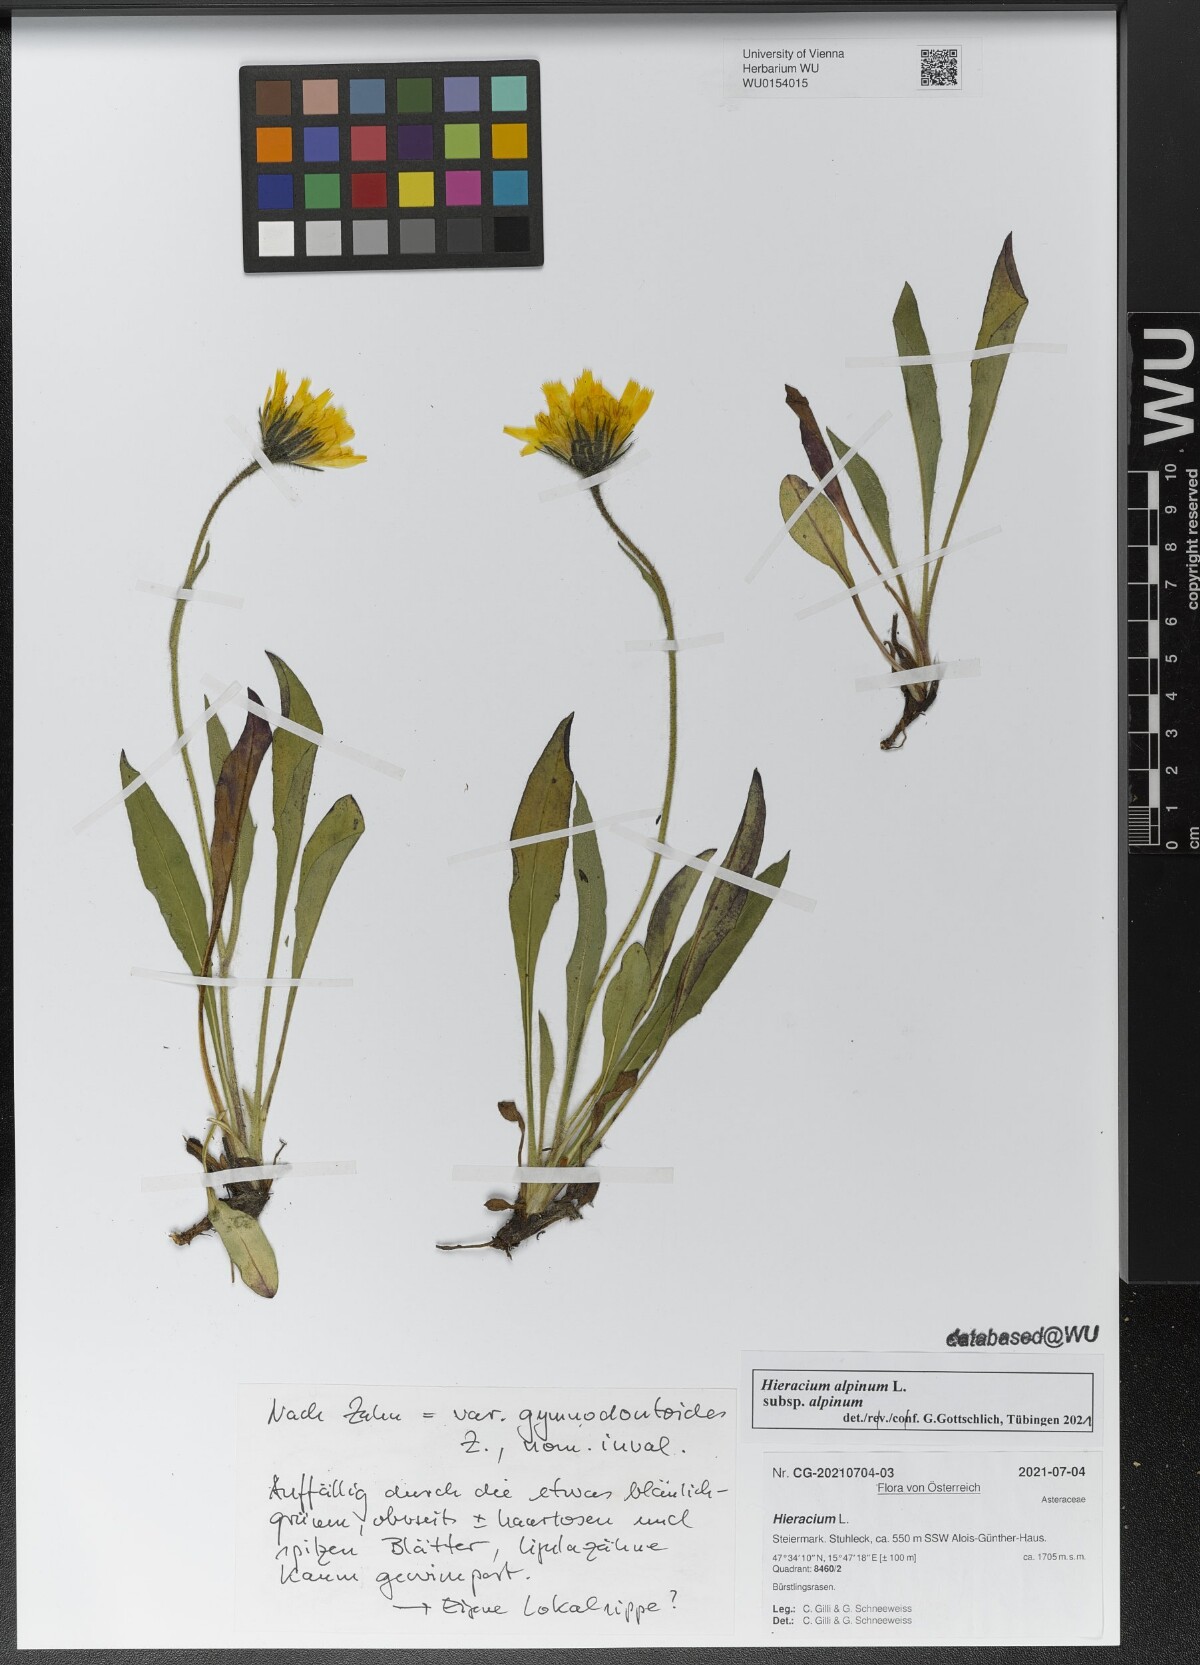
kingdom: Plantae
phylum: Tracheophyta
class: Magnoliopsida
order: Asterales
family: Asteraceae
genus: Hieracium
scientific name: Hieracium alpinum
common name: Alpine hawkweed
